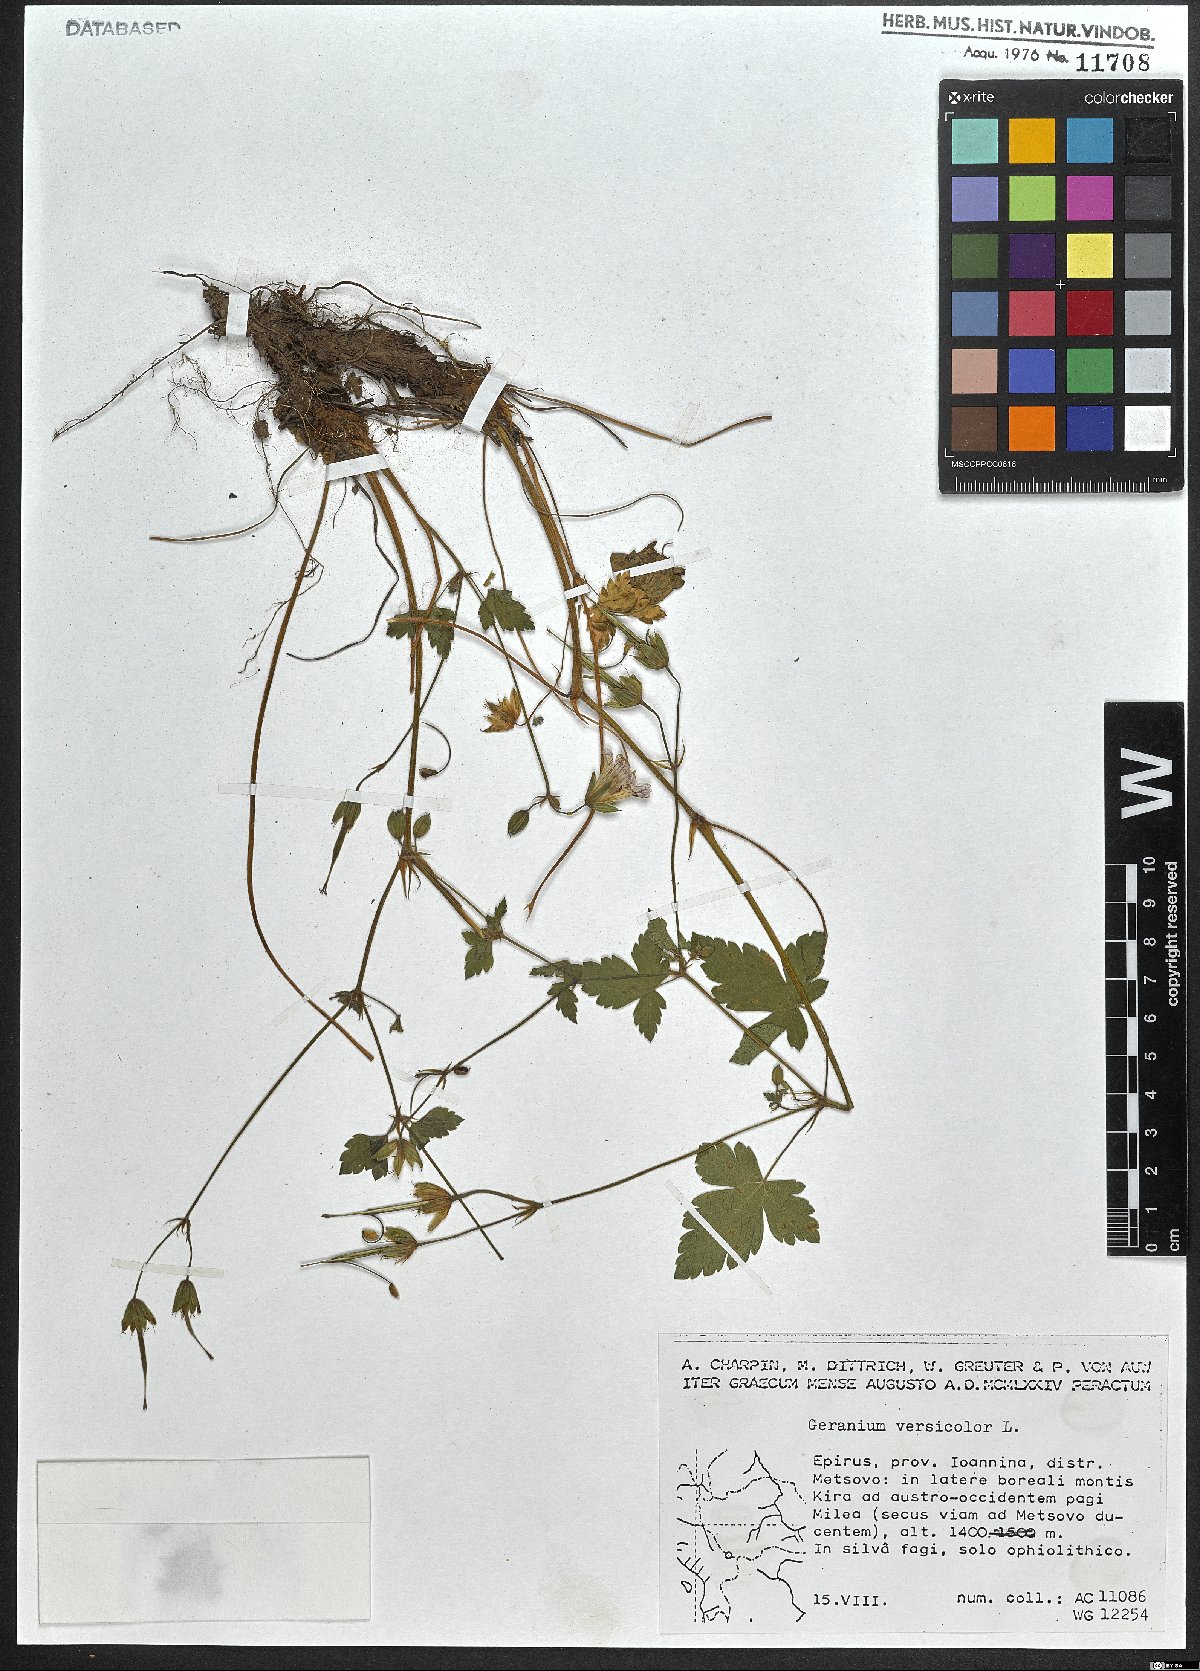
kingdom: Plantae
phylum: Tracheophyta
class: Magnoliopsida
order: Geraniales
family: Geraniaceae
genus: Geranium
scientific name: Geranium versicolor
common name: Pencilled crane's-bill
